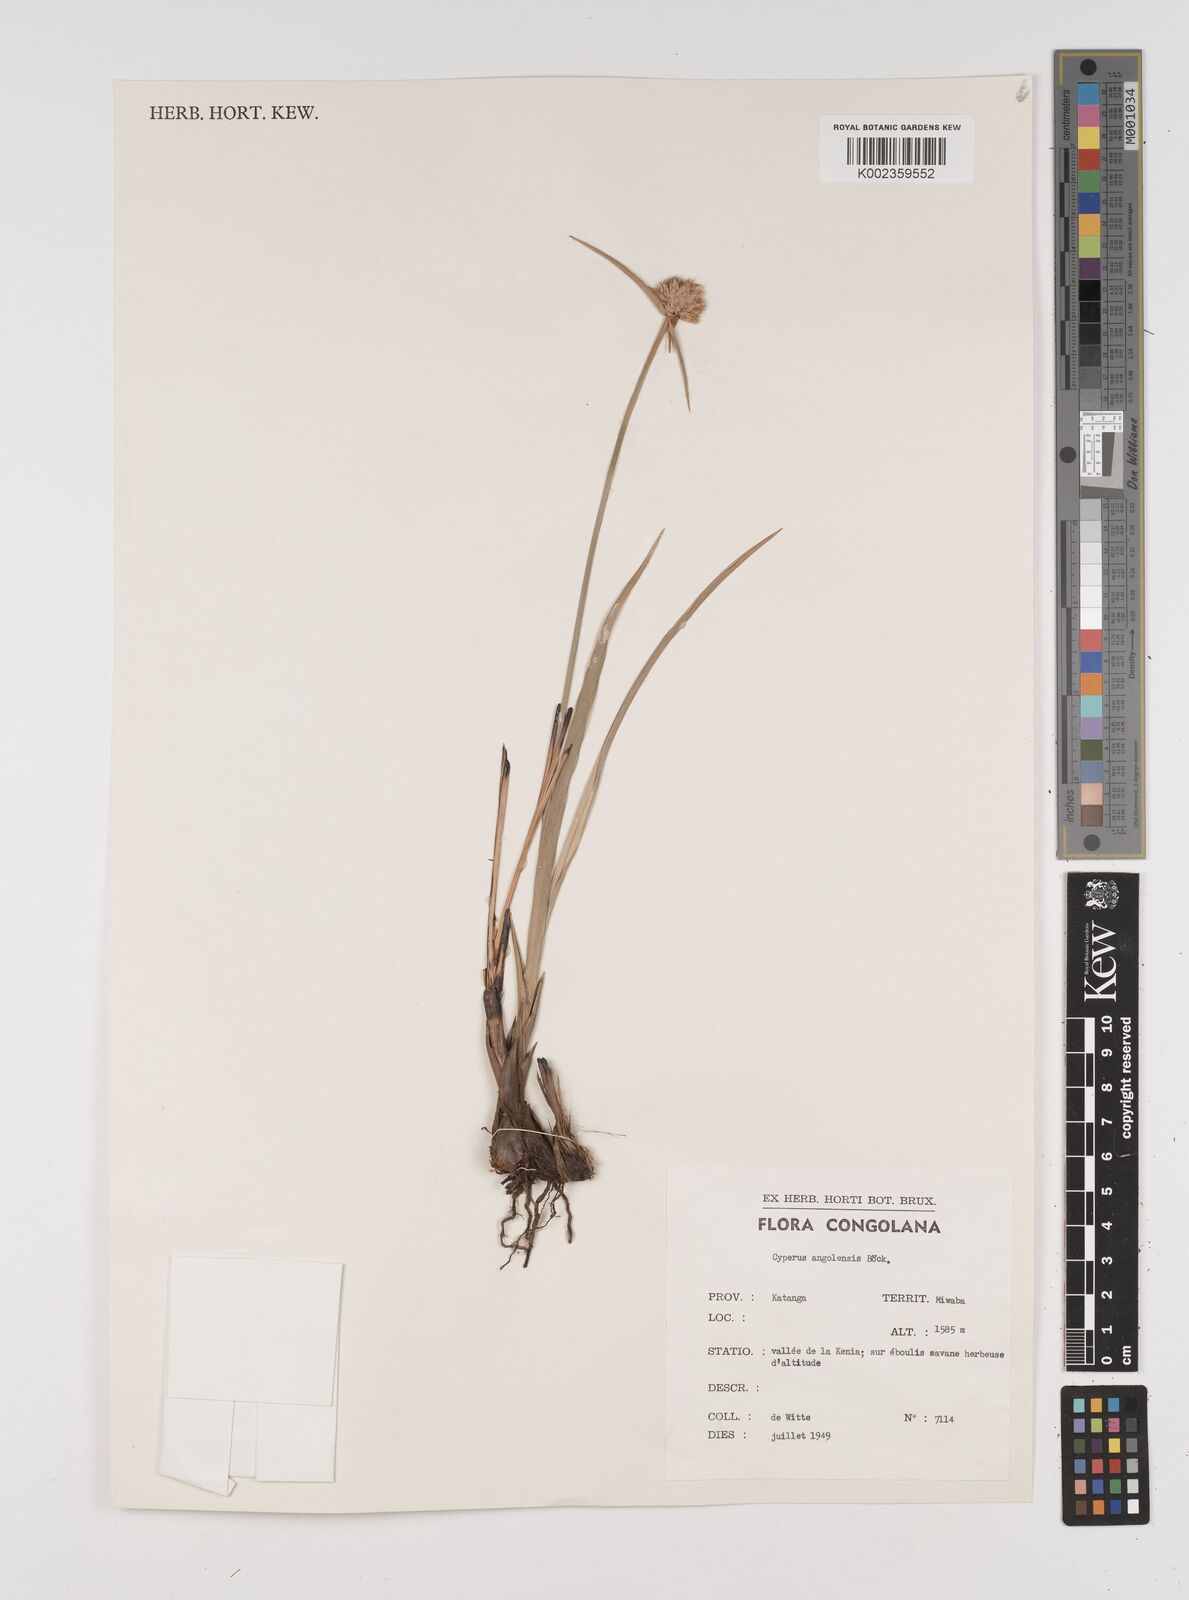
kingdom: Plantae
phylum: Tracheophyta
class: Liliopsida
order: Poales
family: Cyperaceae
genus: Cyperus
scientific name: Cyperus angolensis
